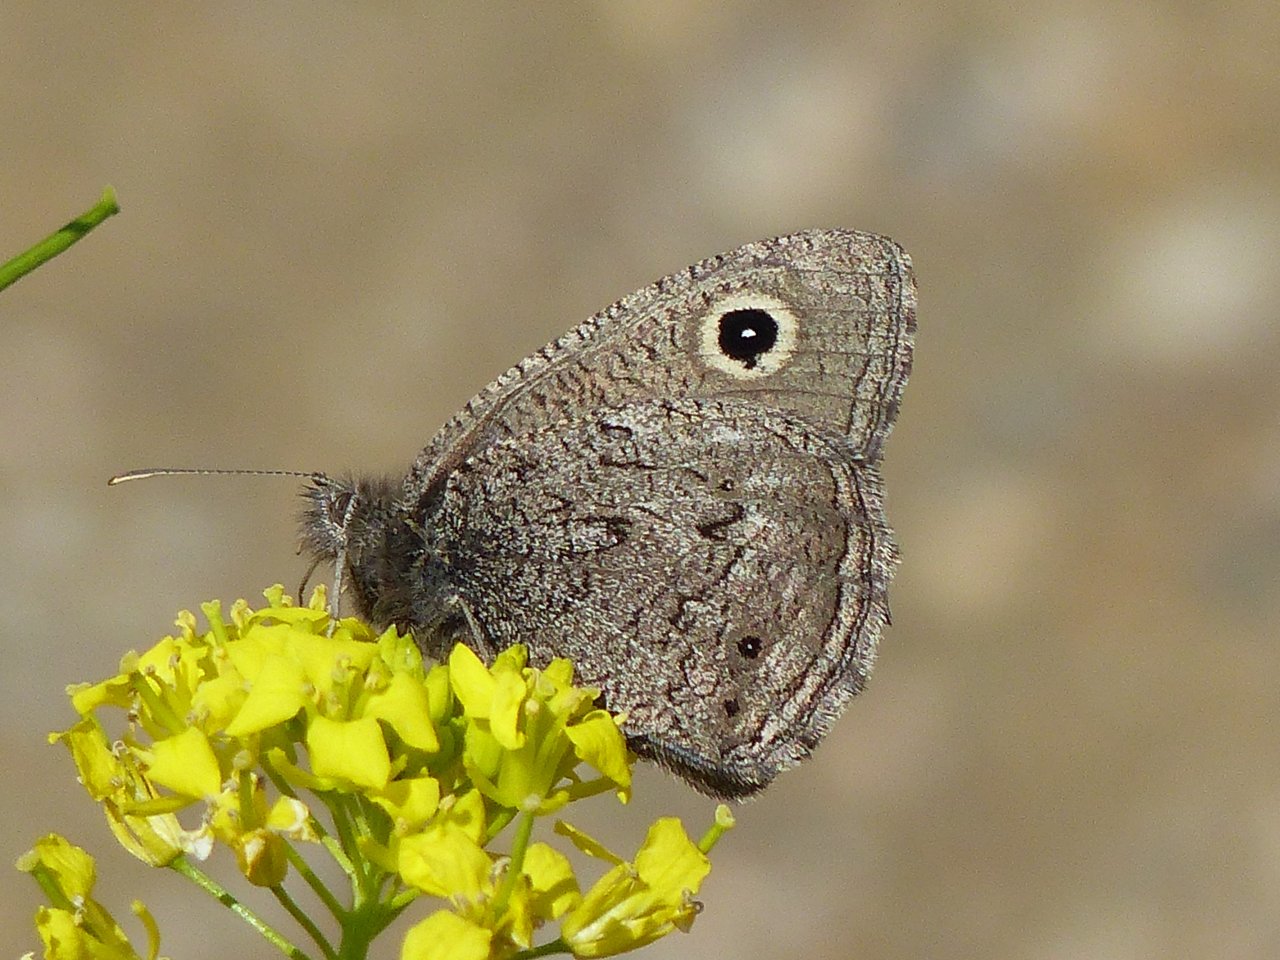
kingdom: Animalia
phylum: Arthropoda
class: Insecta
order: Lepidoptera
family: Nymphalidae
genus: Cercyonis
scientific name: Cercyonis oetus
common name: Small Wood-Nymph
